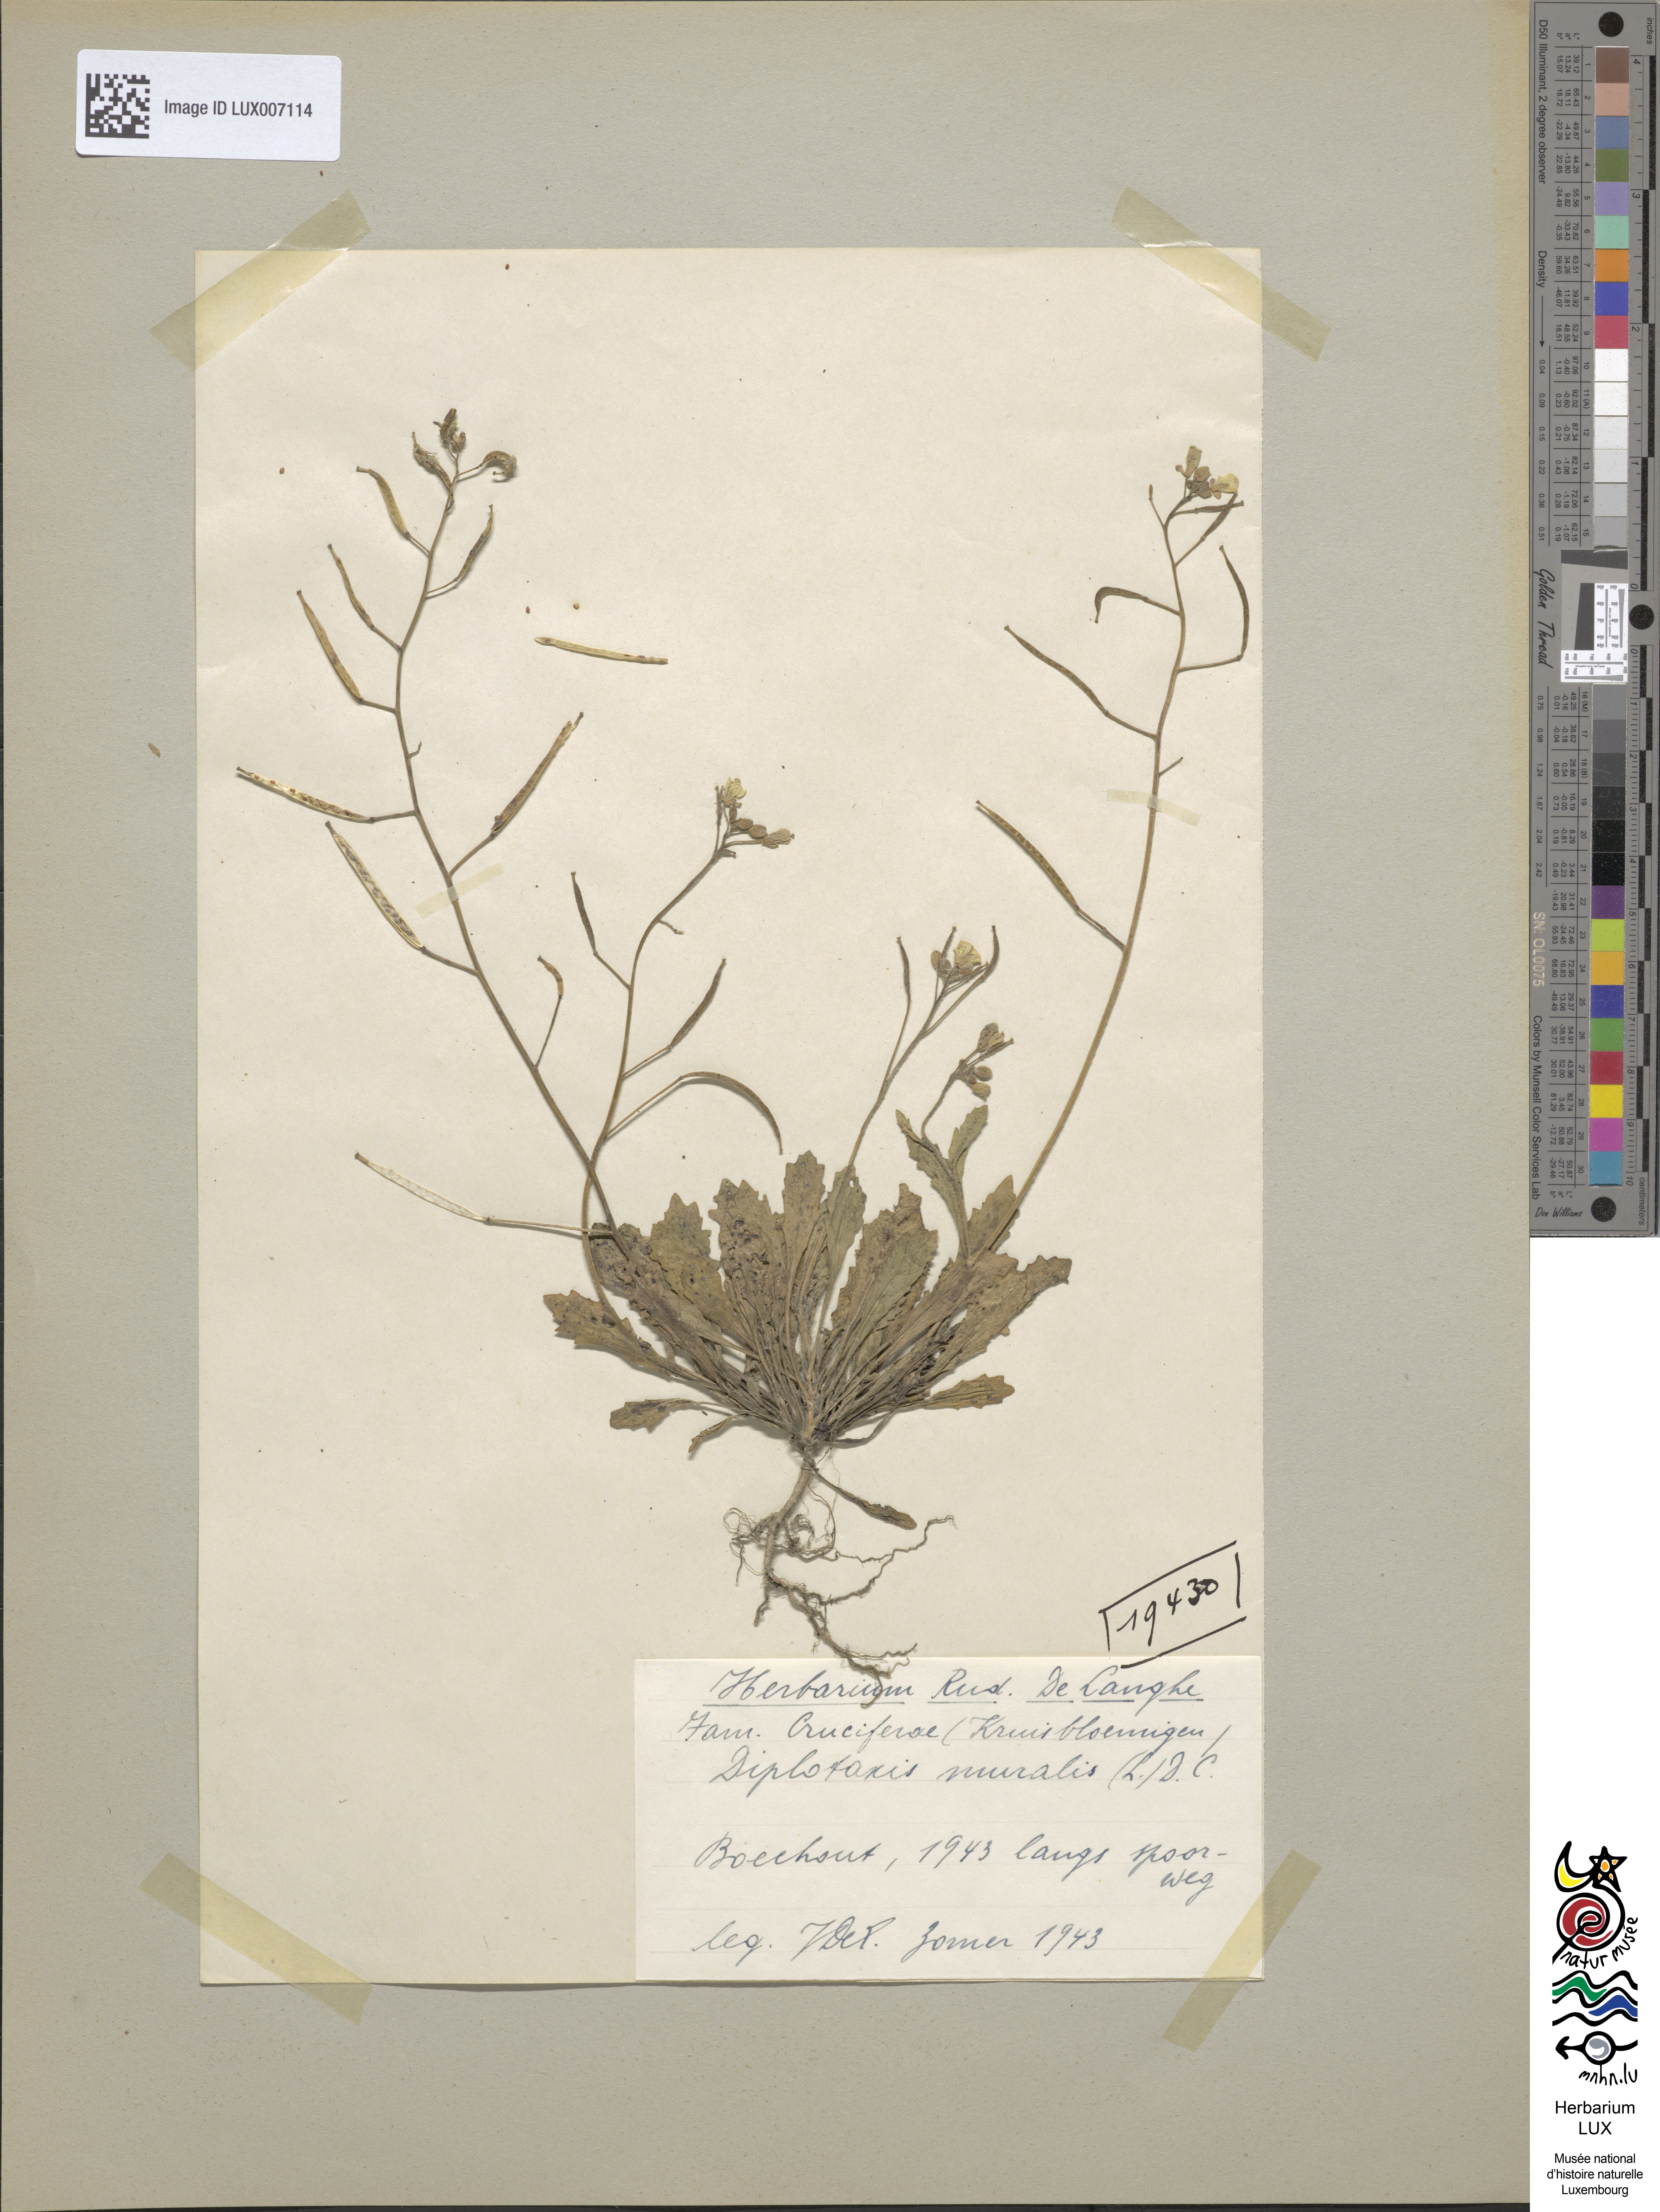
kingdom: Plantae
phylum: Tracheophyta
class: Magnoliopsida
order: Brassicales
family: Brassicaceae
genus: Diplotaxis
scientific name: Diplotaxis muralis
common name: Annual wall-rocket
